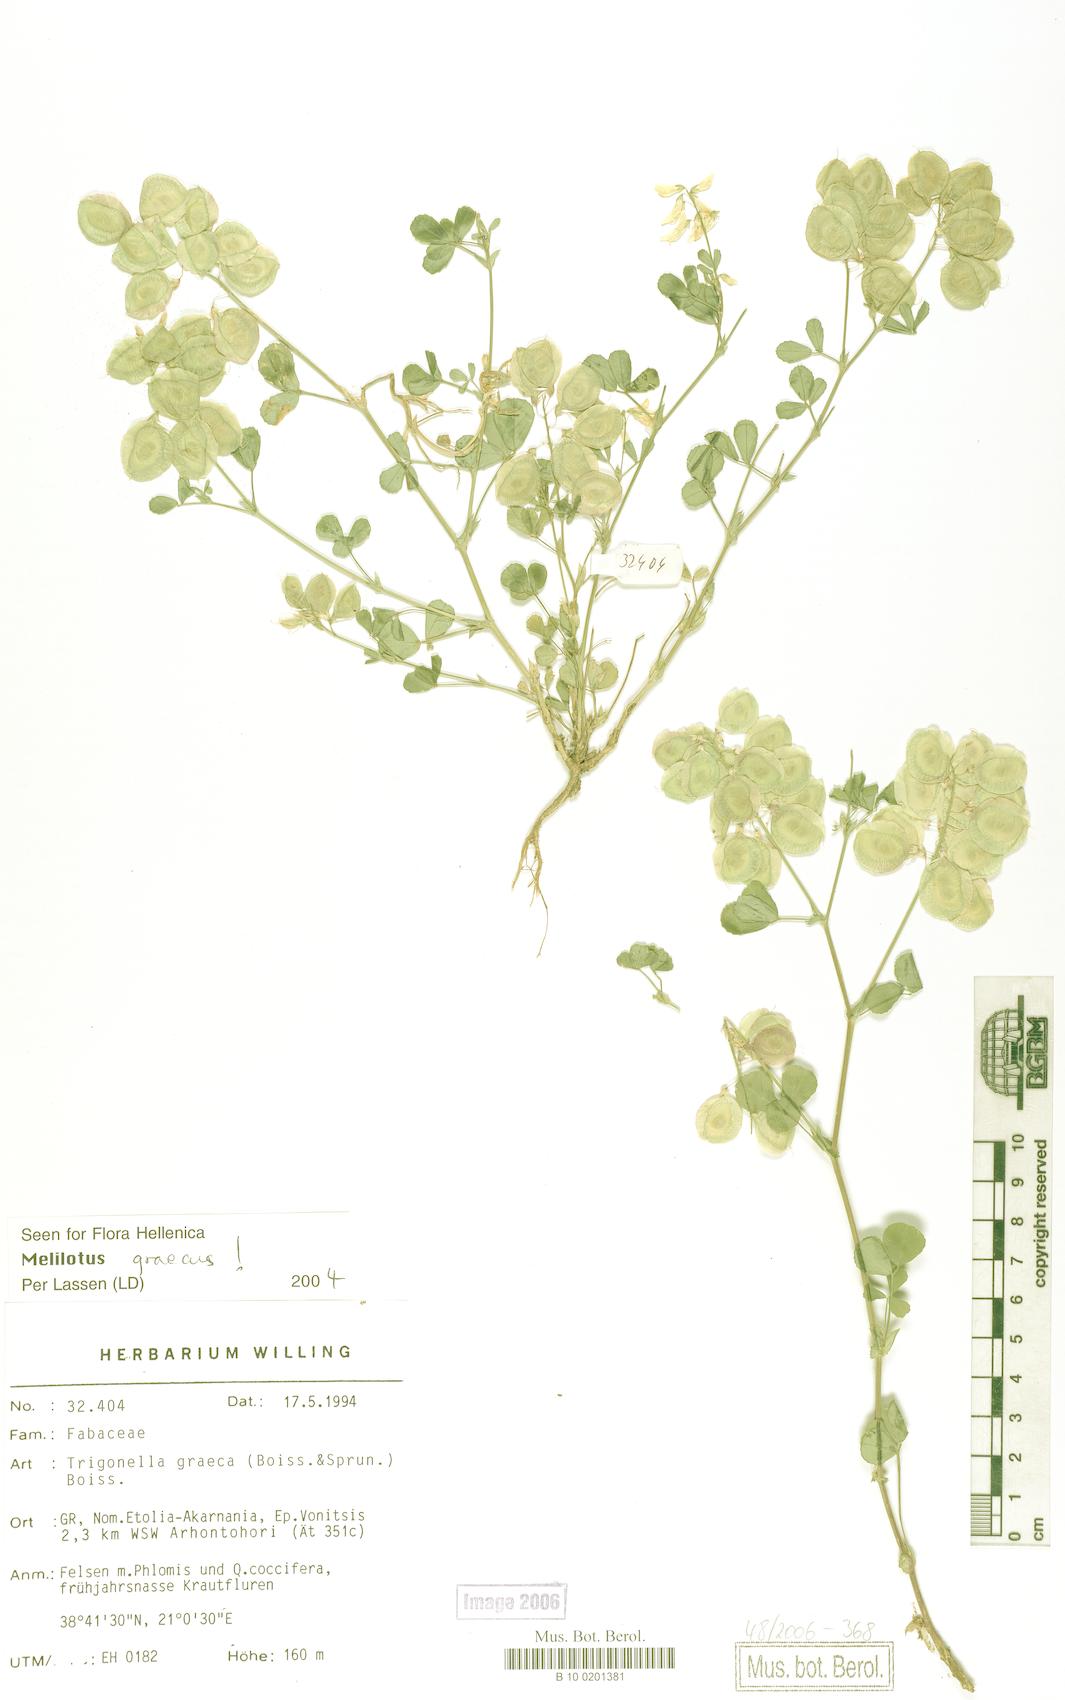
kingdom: Plantae
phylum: Tracheophyta
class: Magnoliopsida
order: Fabales
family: Fabaceae
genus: Trigonella
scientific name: Trigonella graeca
